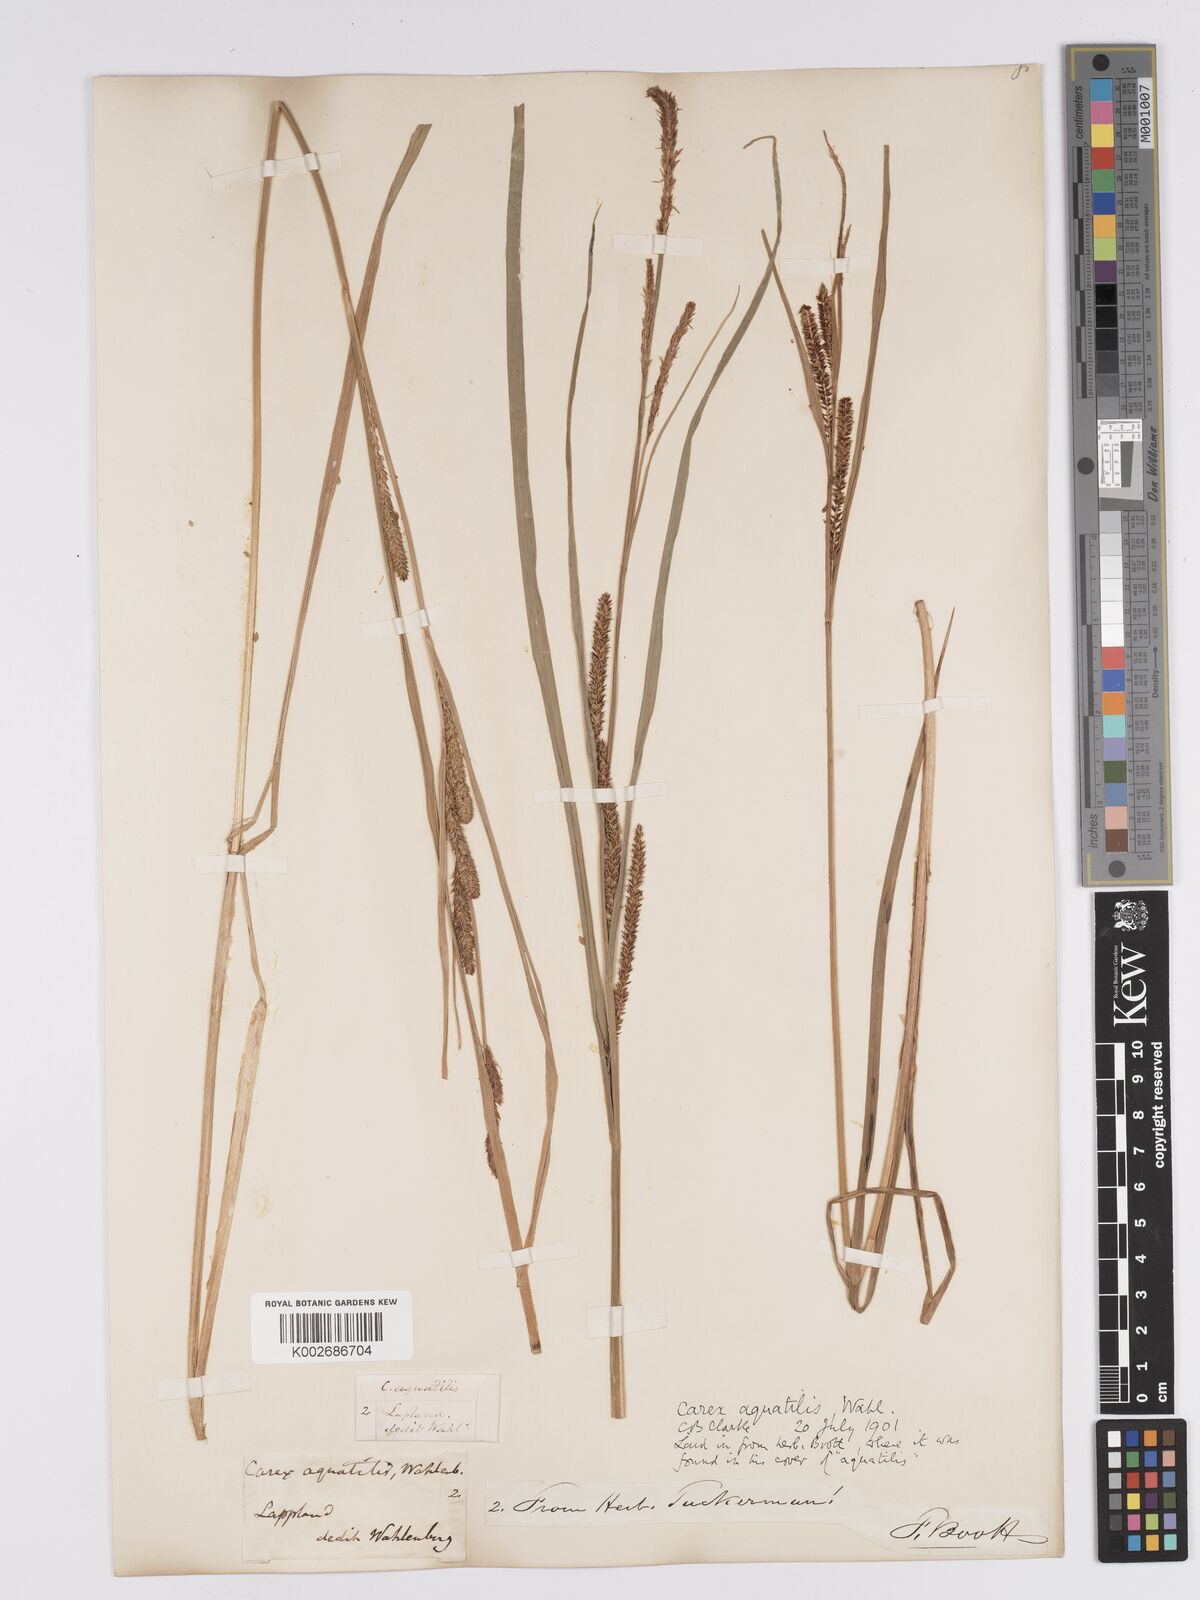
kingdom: Plantae
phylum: Tracheophyta
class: Liliopsida
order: Poales
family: Cyperaceae
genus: Carex
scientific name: Carex aquatilis
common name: Water sedge
